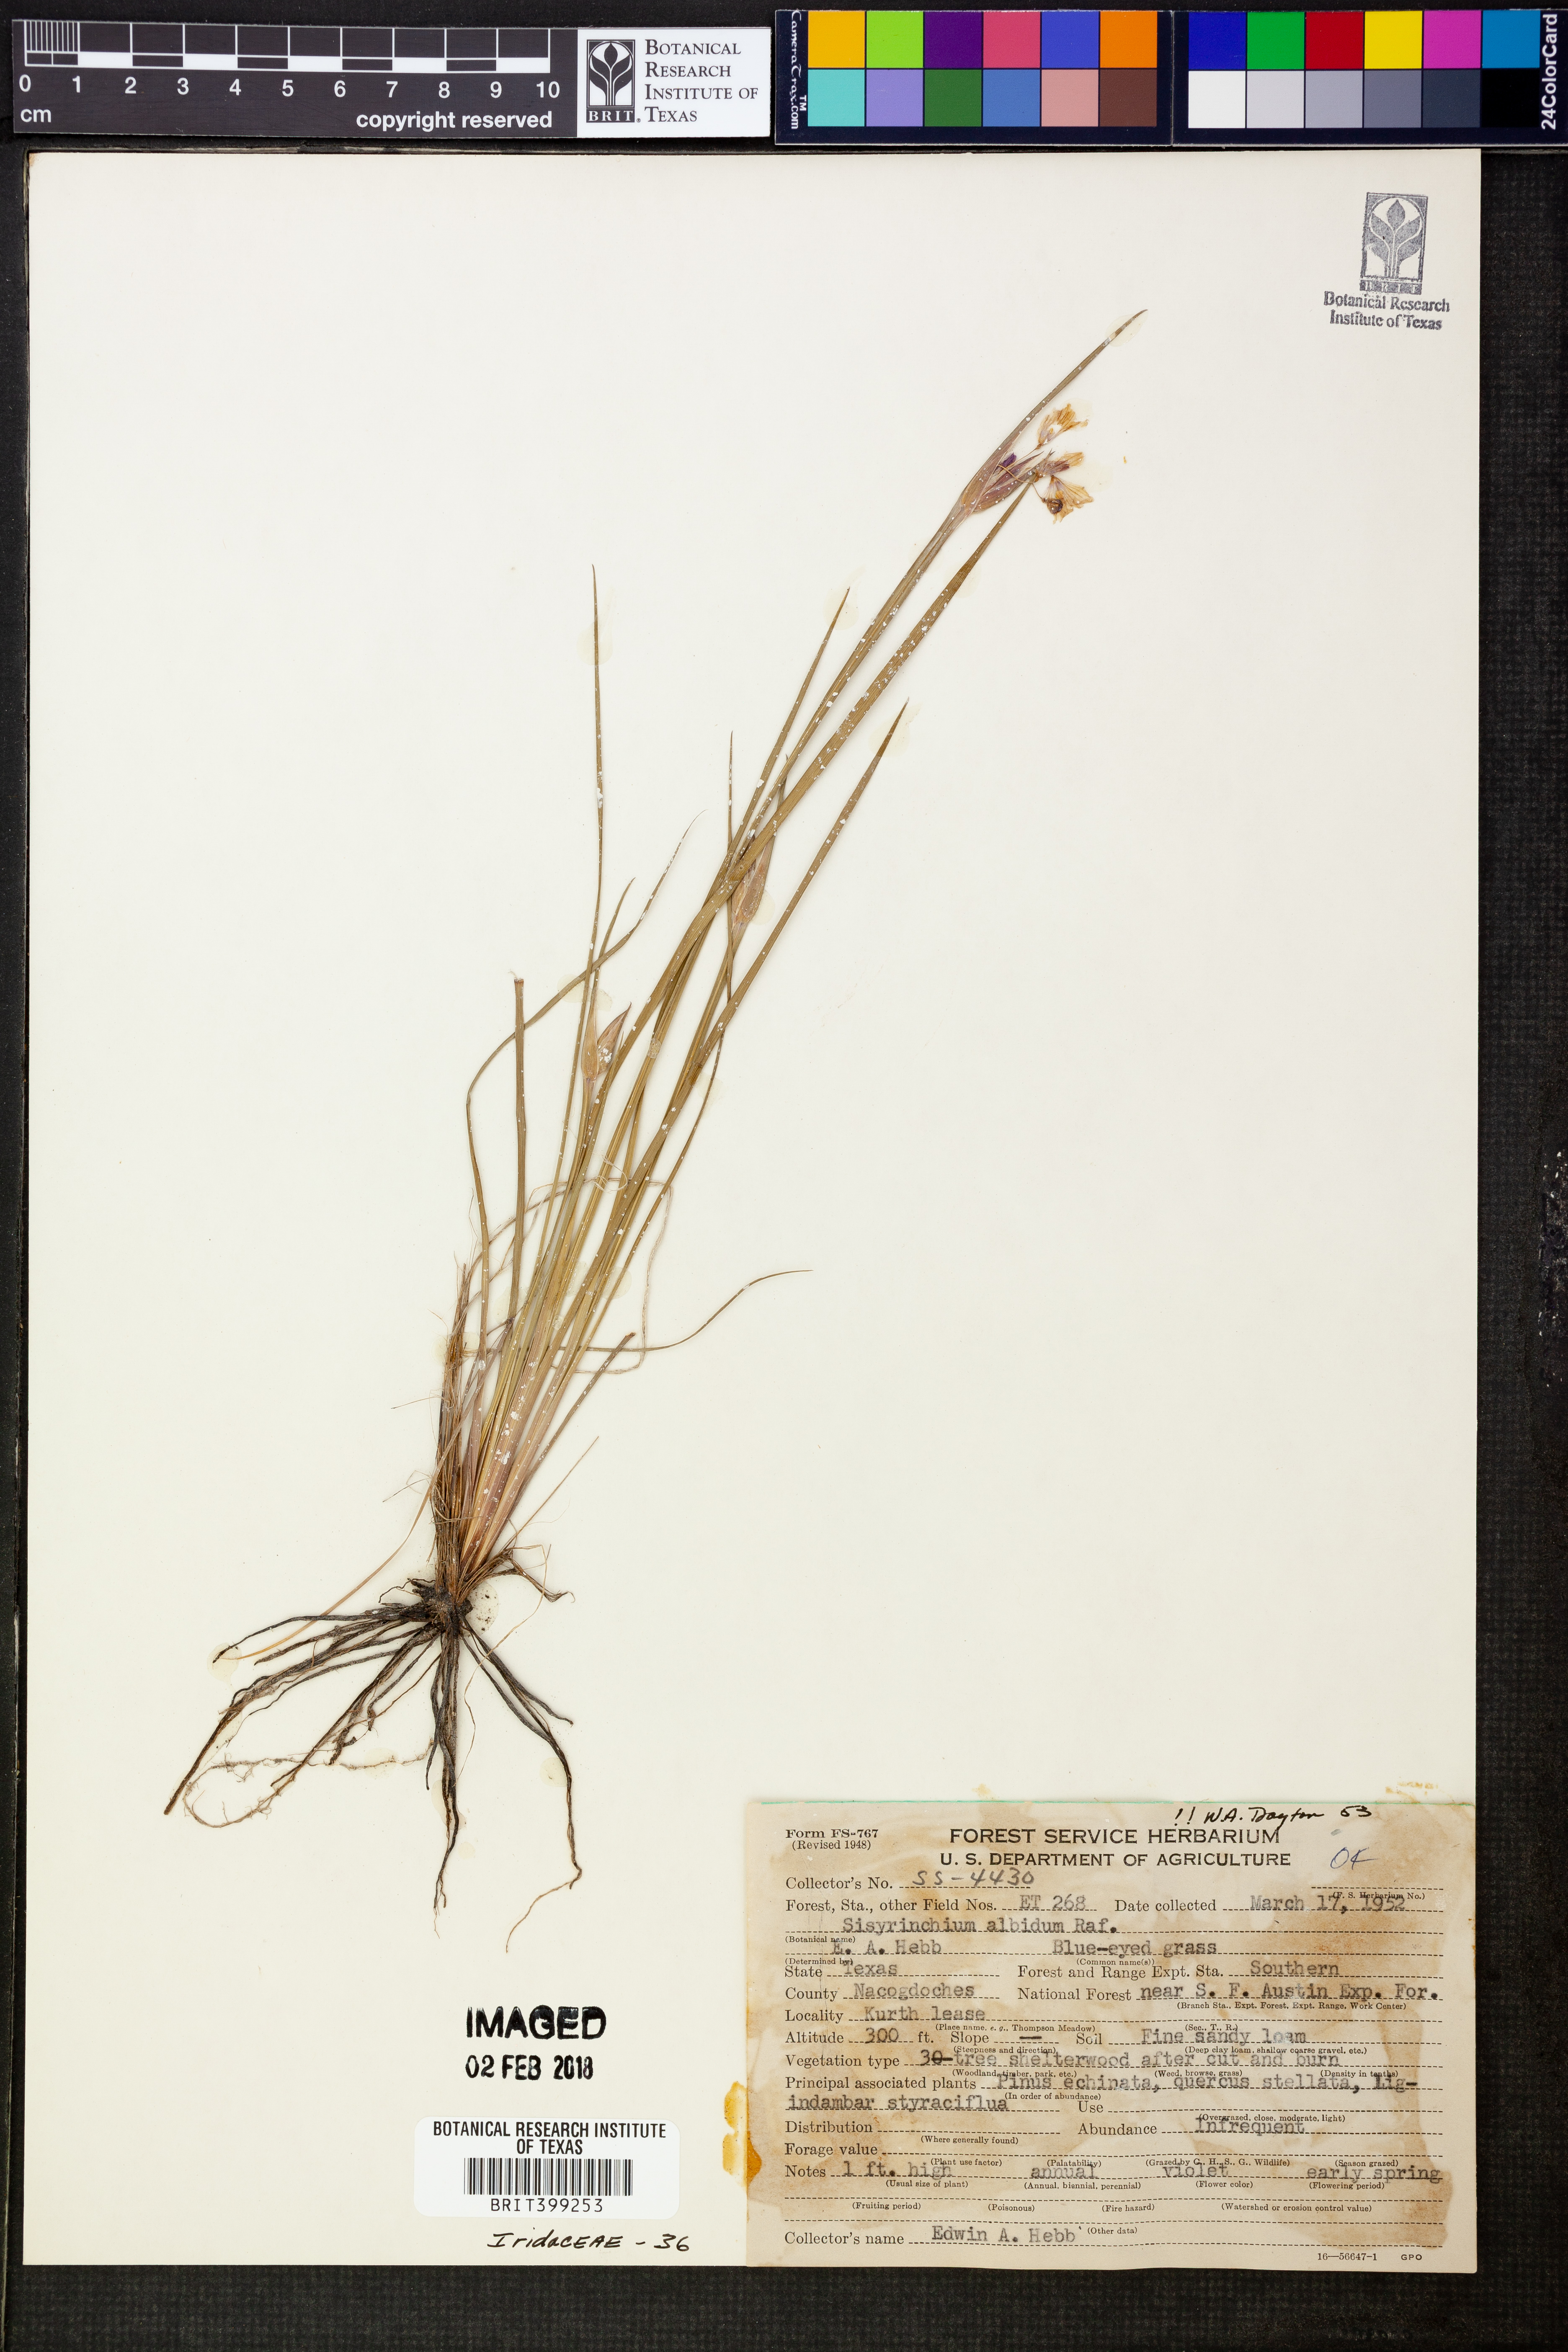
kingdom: Plantae
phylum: Tracheophyta
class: Liliopsida
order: Asparagales
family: Iridaceae
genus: Sisyrinchium
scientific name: Sisyrinchium albidum
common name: Pale blue-eyed-grass
